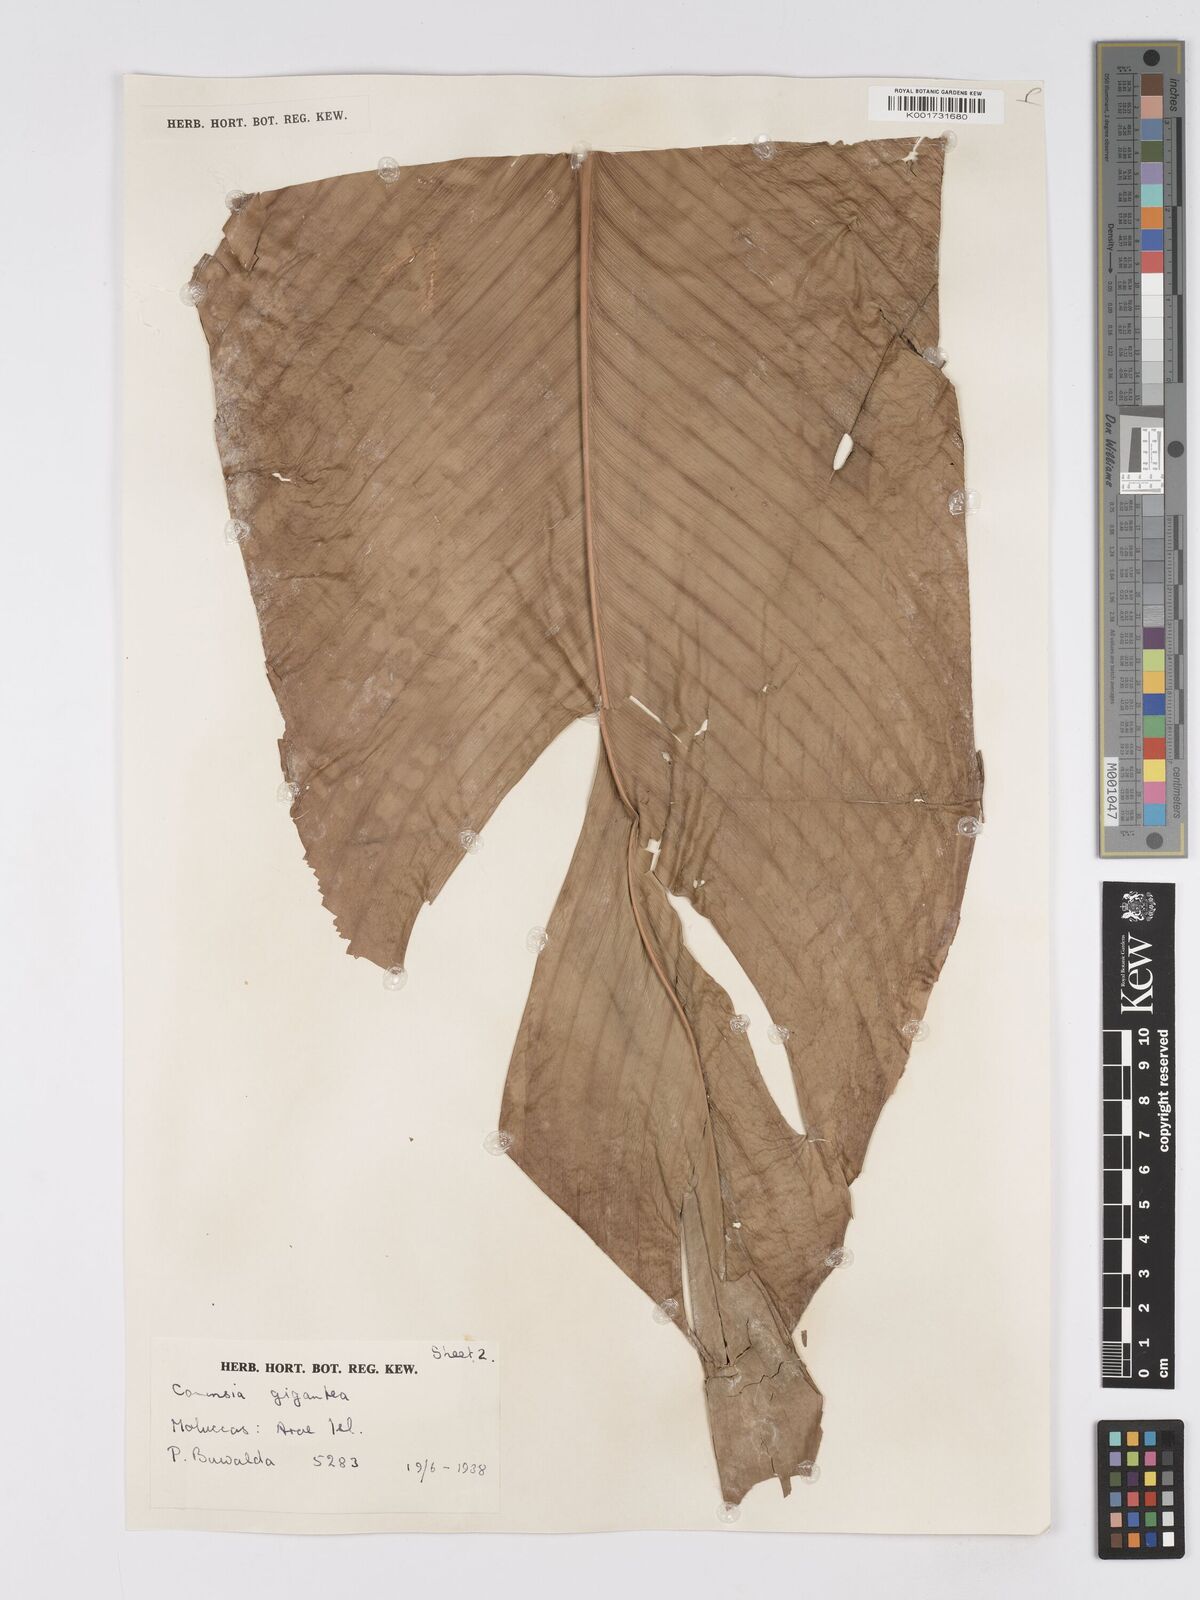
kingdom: Plantae
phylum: Tracheophyta
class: Liliopsida
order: Zingiberales
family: Marantaceae
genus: Phrynium
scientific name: Phrynium giganteum
